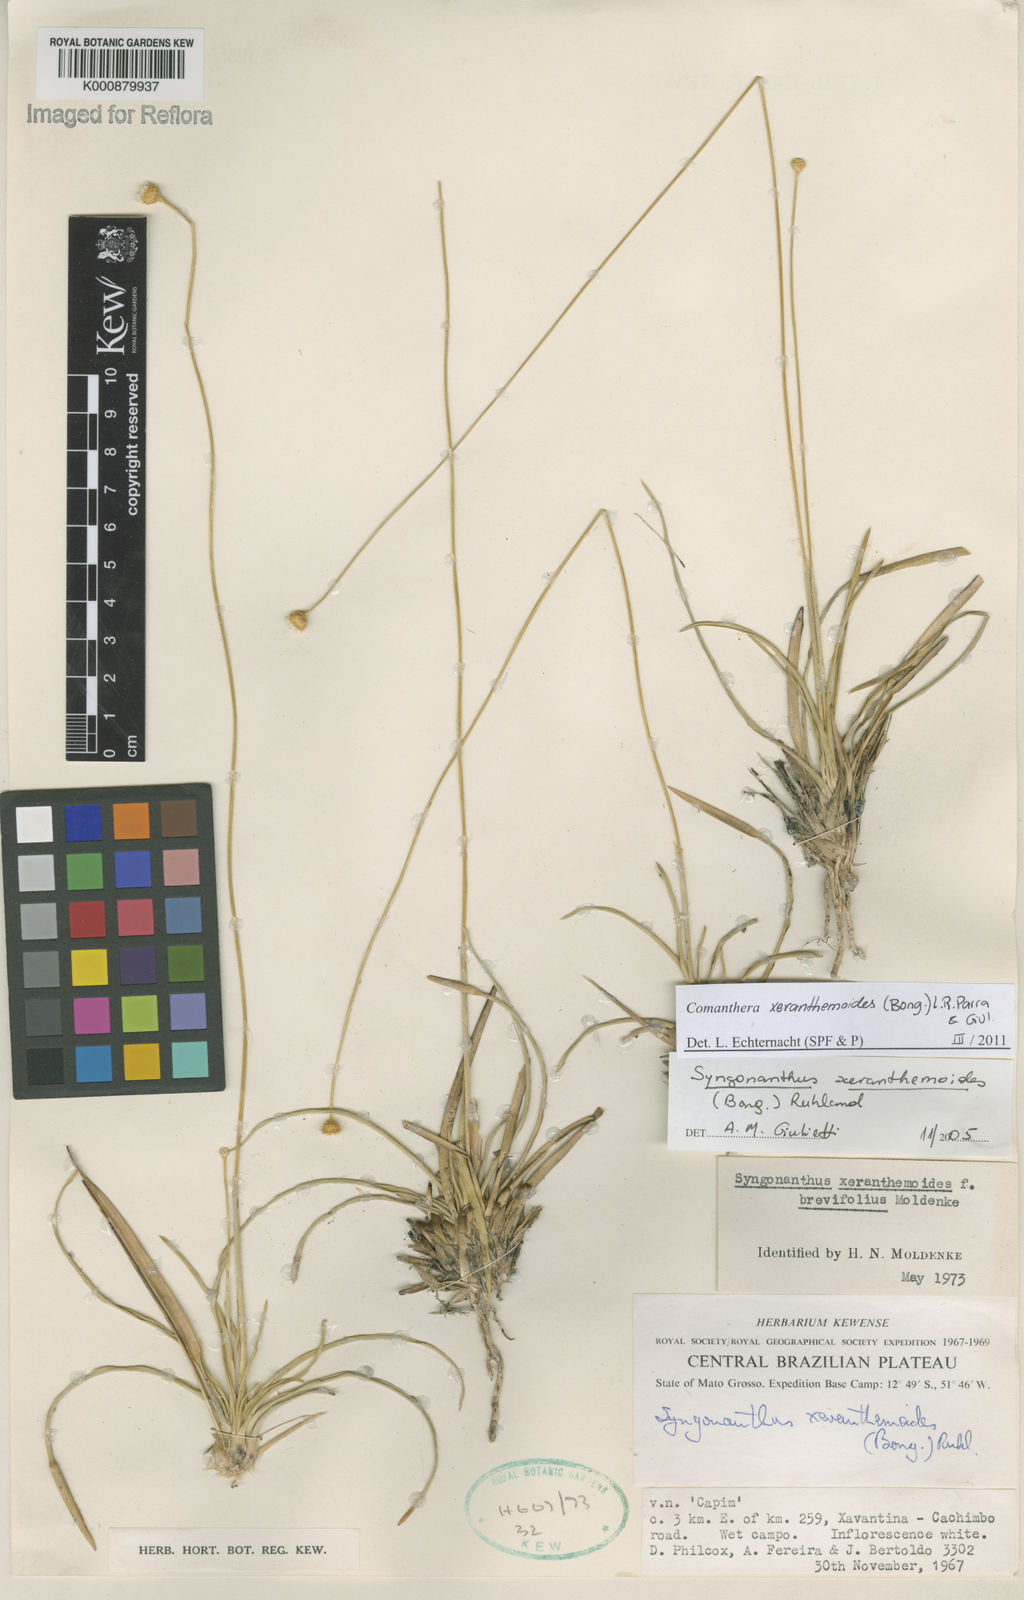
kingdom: Plantae
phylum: Tracheophyta
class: Liliopsida
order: Poales
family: Eriocaulaceae
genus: Comanthera
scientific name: Comanthera
